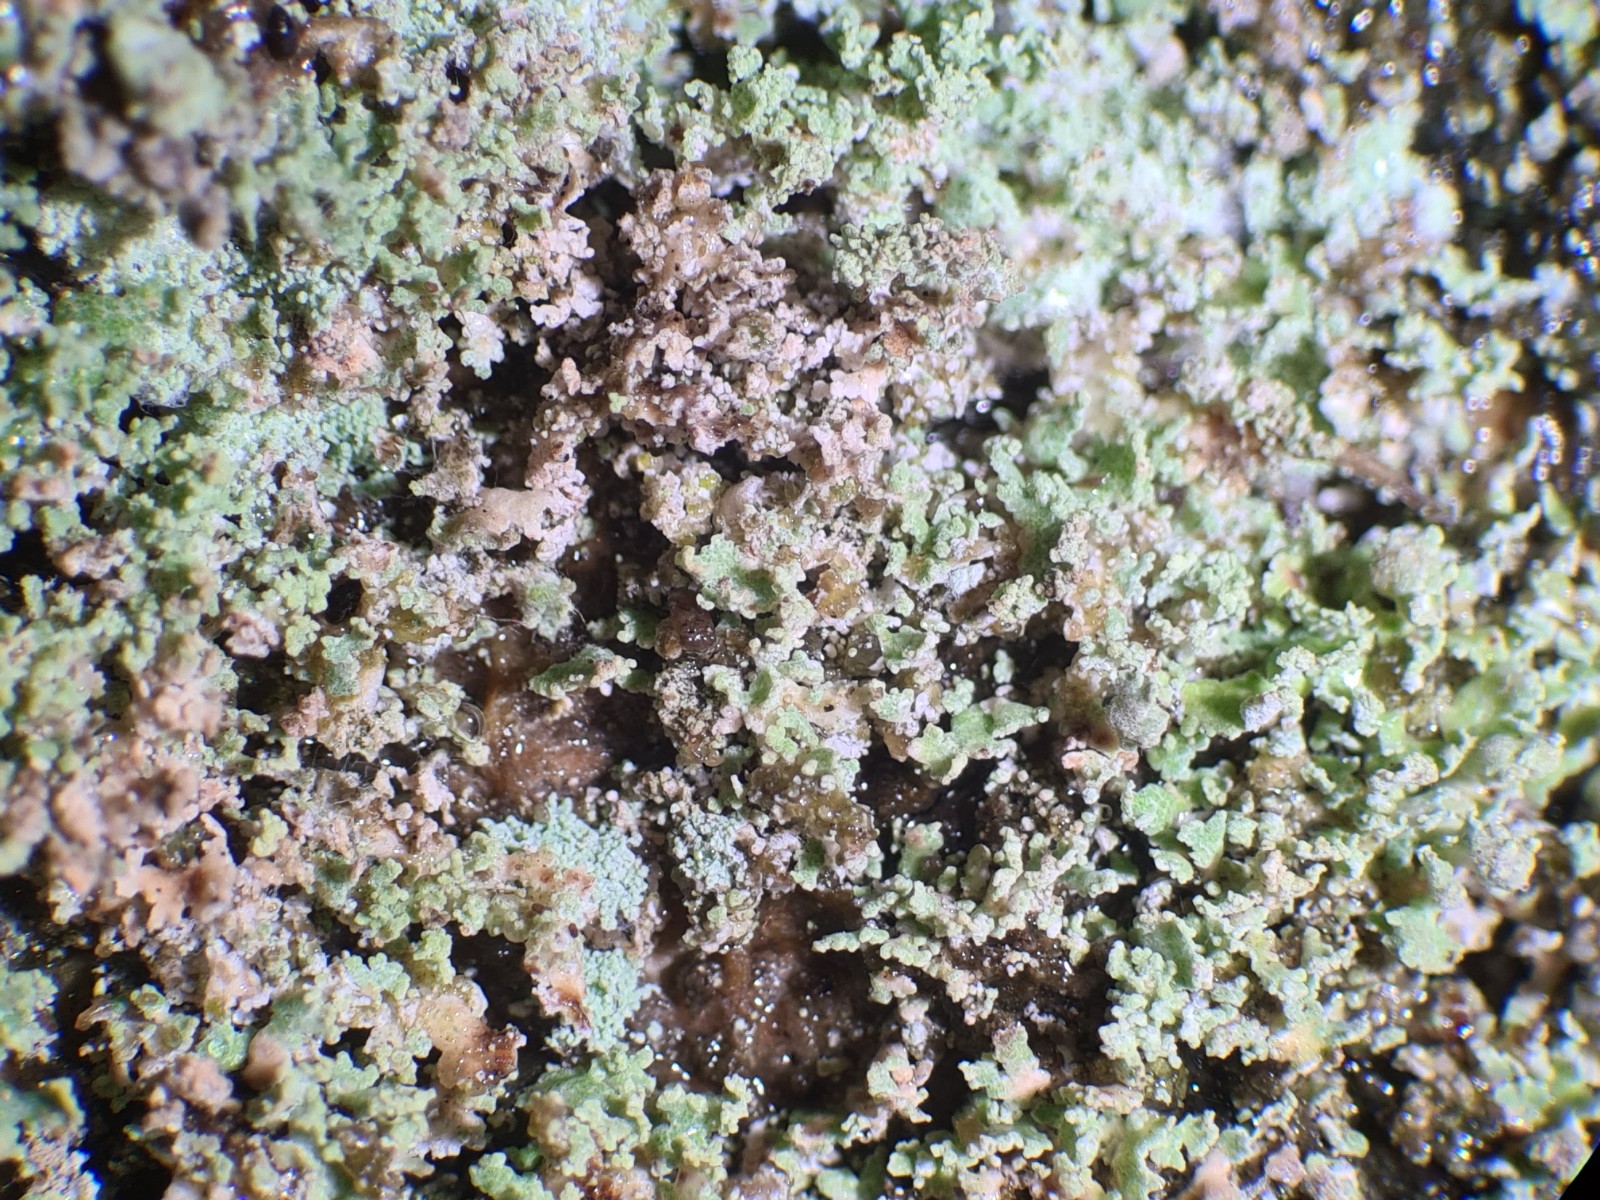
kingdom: Fungi
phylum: Ascomycota
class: Lecanoromycetes
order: Lecanorales
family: Cladoniaceae
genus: Cladonia
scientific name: Cladonia
